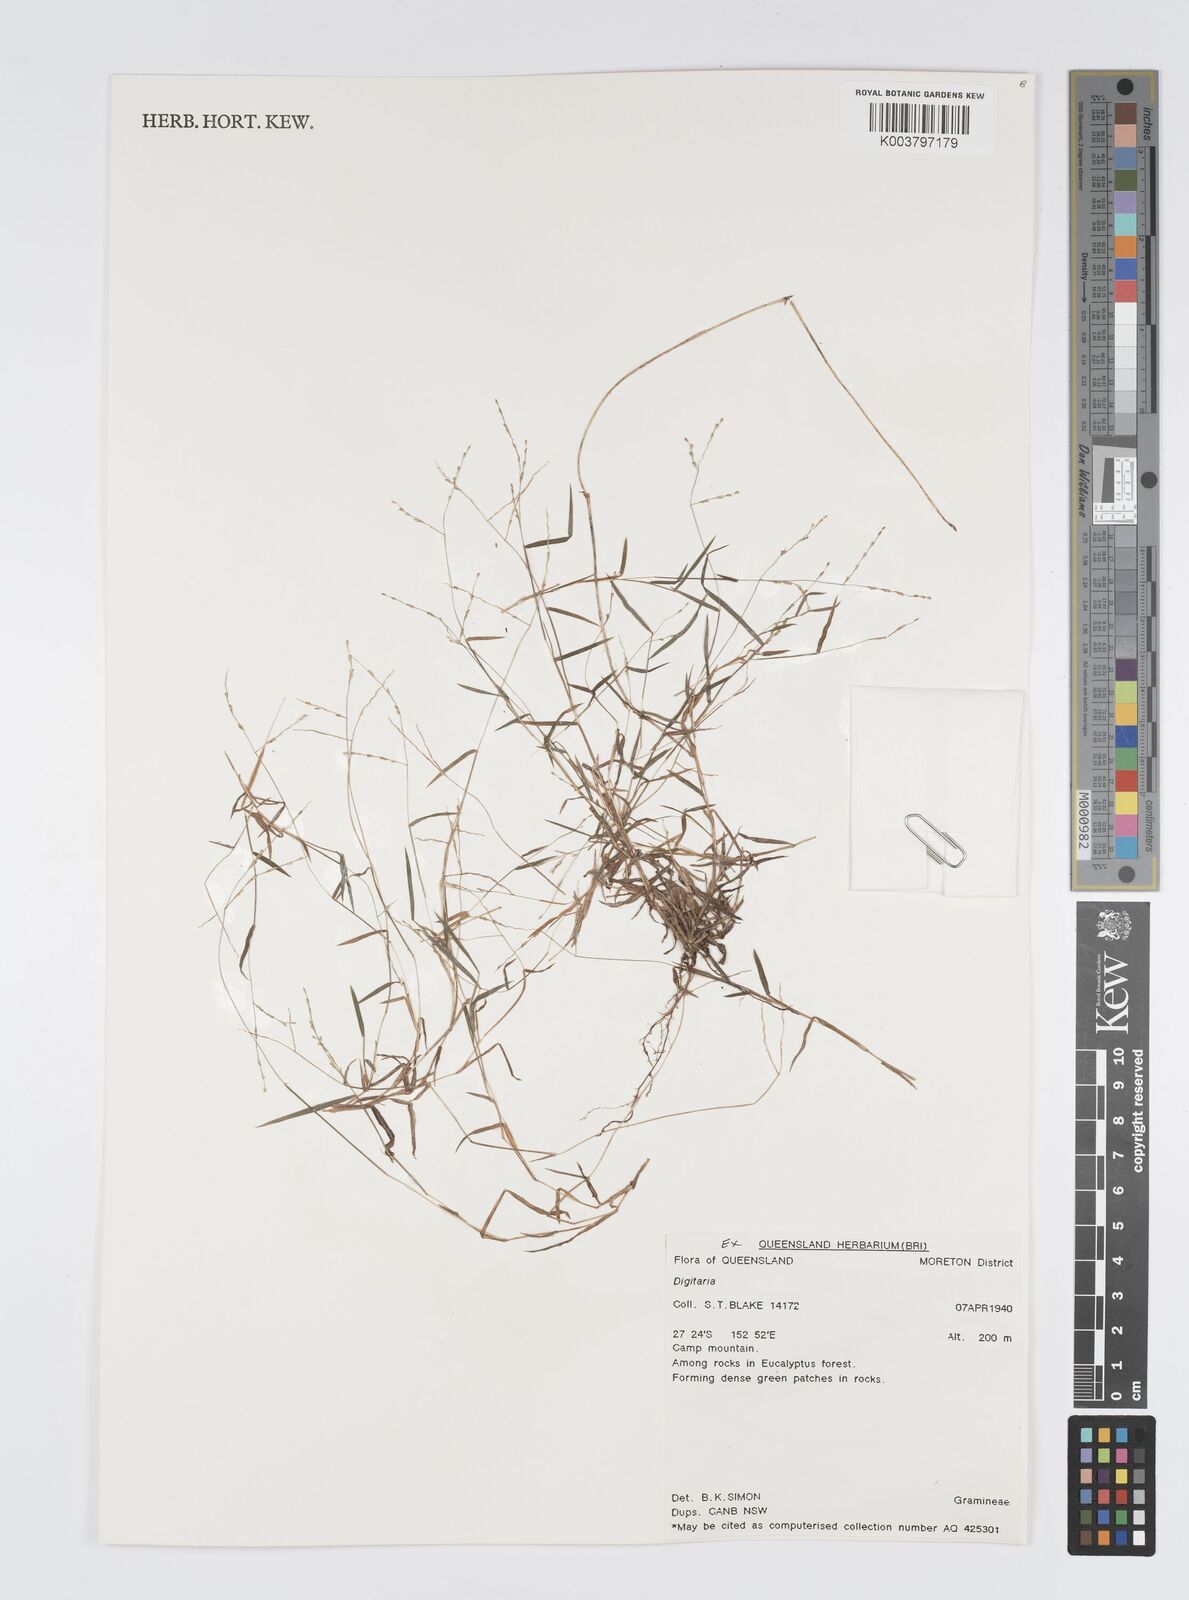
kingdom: Plantae
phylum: Tracheophyta
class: Liliopsida
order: Poales
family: Poaceae
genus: Digitaria
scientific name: Digitaria spec
